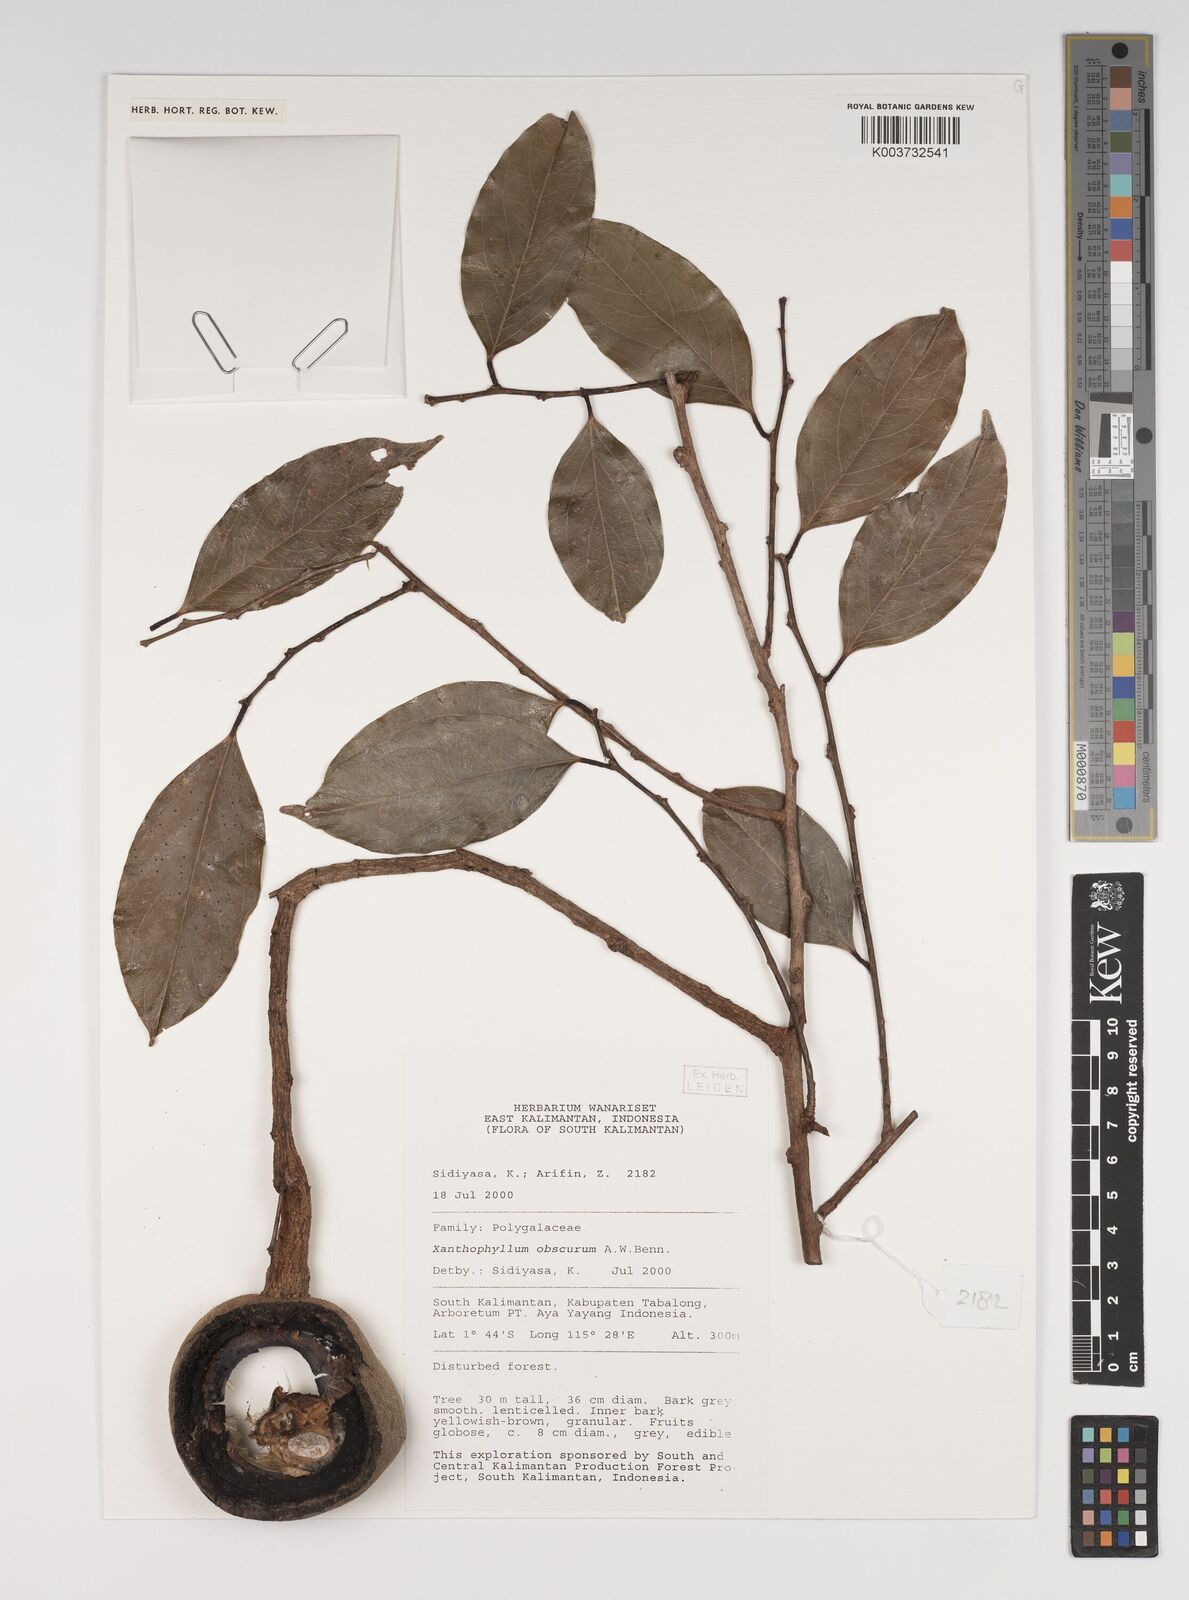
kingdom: Plantae
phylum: Tracheophyta
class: Magnoliopsida
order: Fabales
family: Polygalaceae
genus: Xanthophyllum
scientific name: Xanthophyllum obscurum
